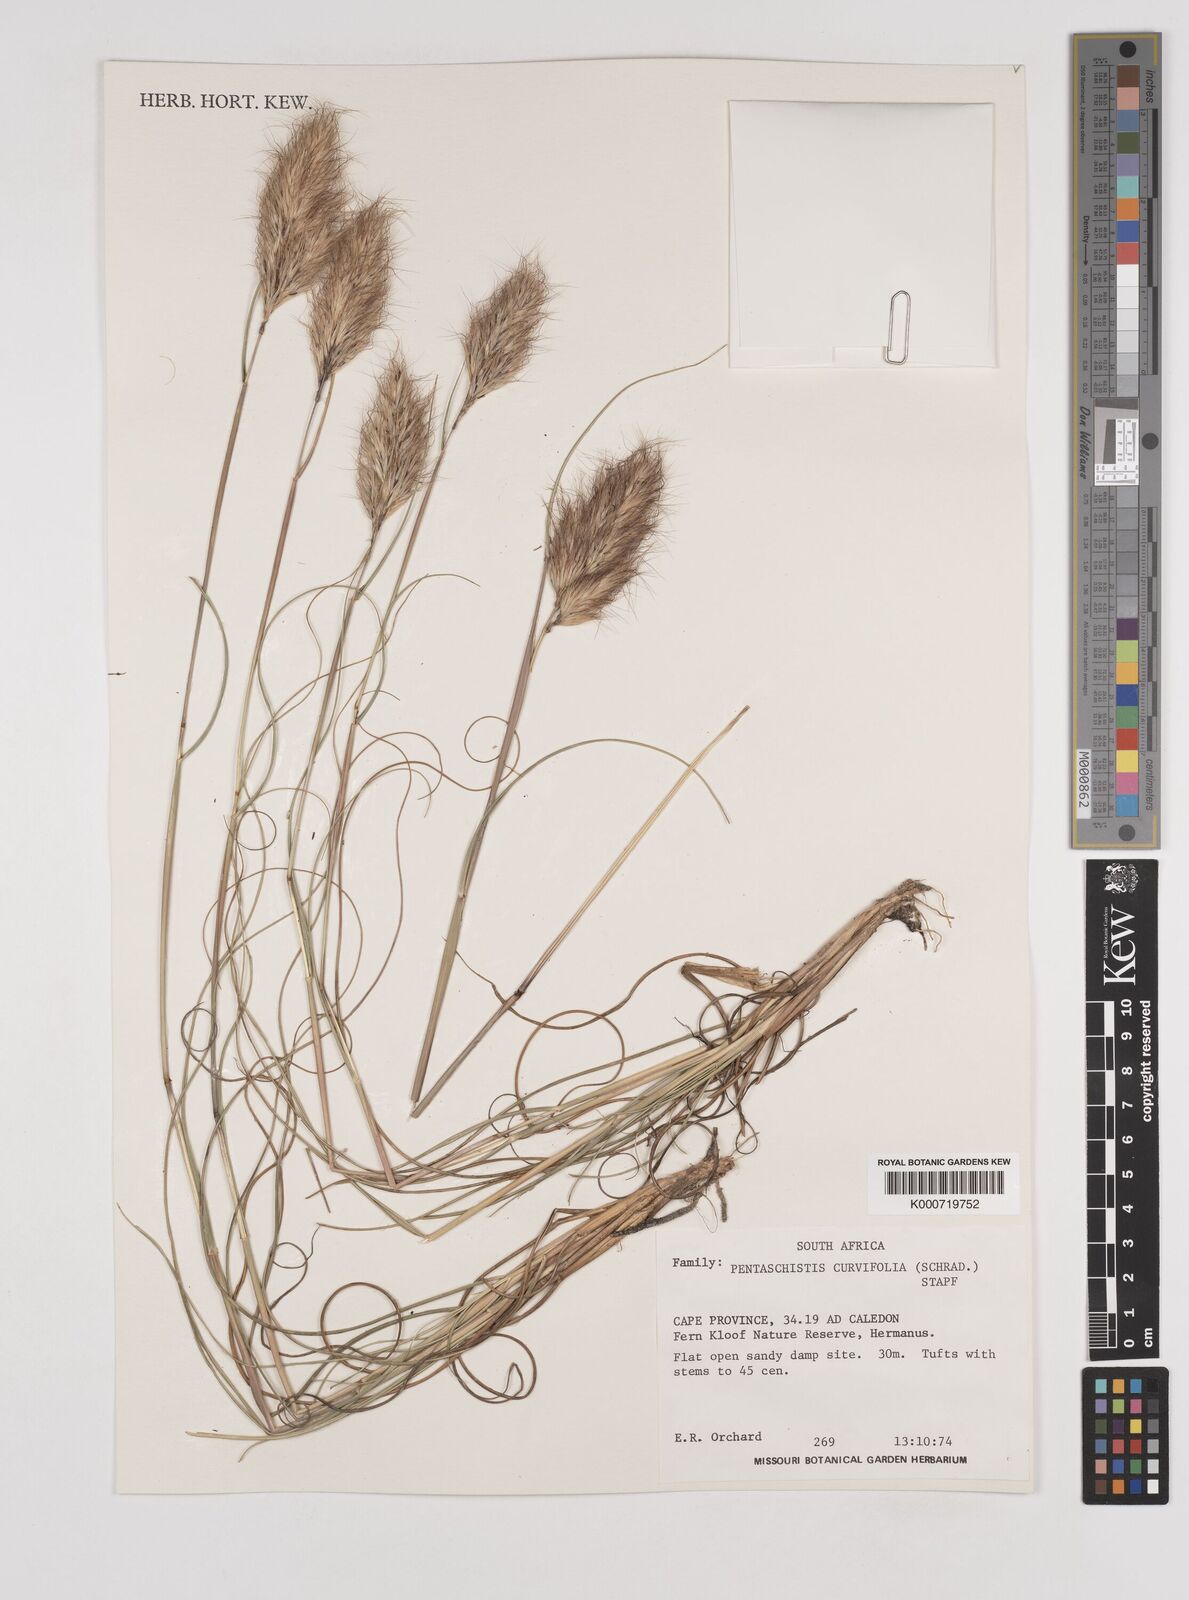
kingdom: Plantae
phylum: Tracheophyta
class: Liliopsida
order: Poales
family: Poaceae
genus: Pentameris
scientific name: Pentameris curvifolia
